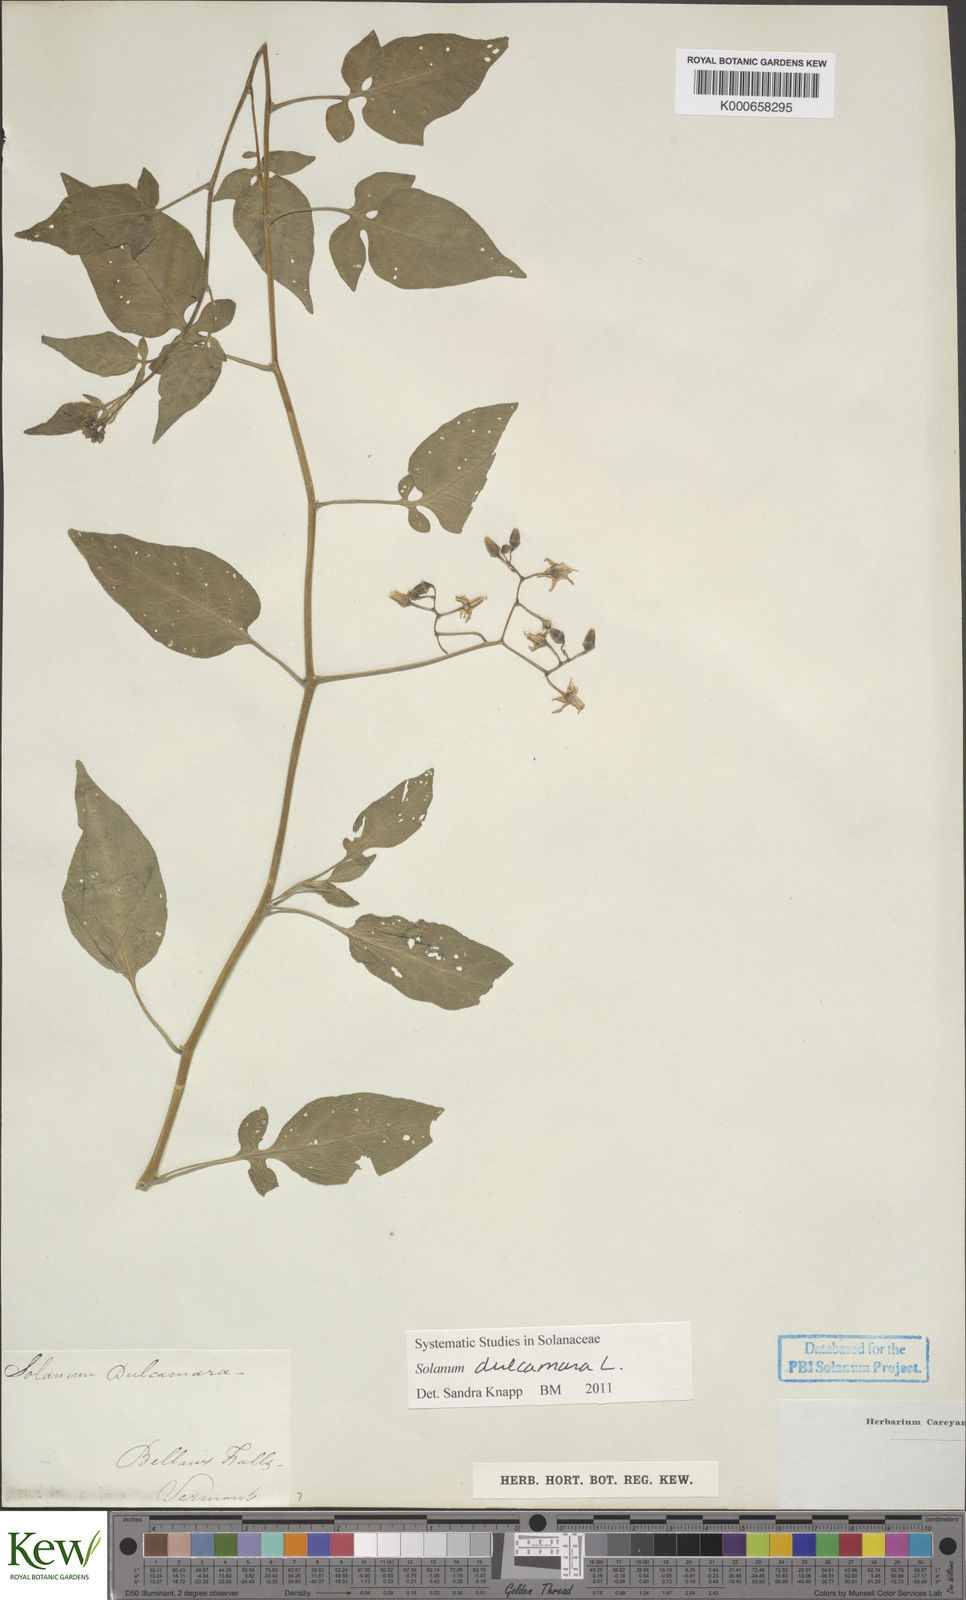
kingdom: Plantae
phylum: Tracheophyta
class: Magnoliopsida
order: Solanales
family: Solanaceae
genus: Solanum
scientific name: Solanum dulcamara
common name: Climbing nightshade
